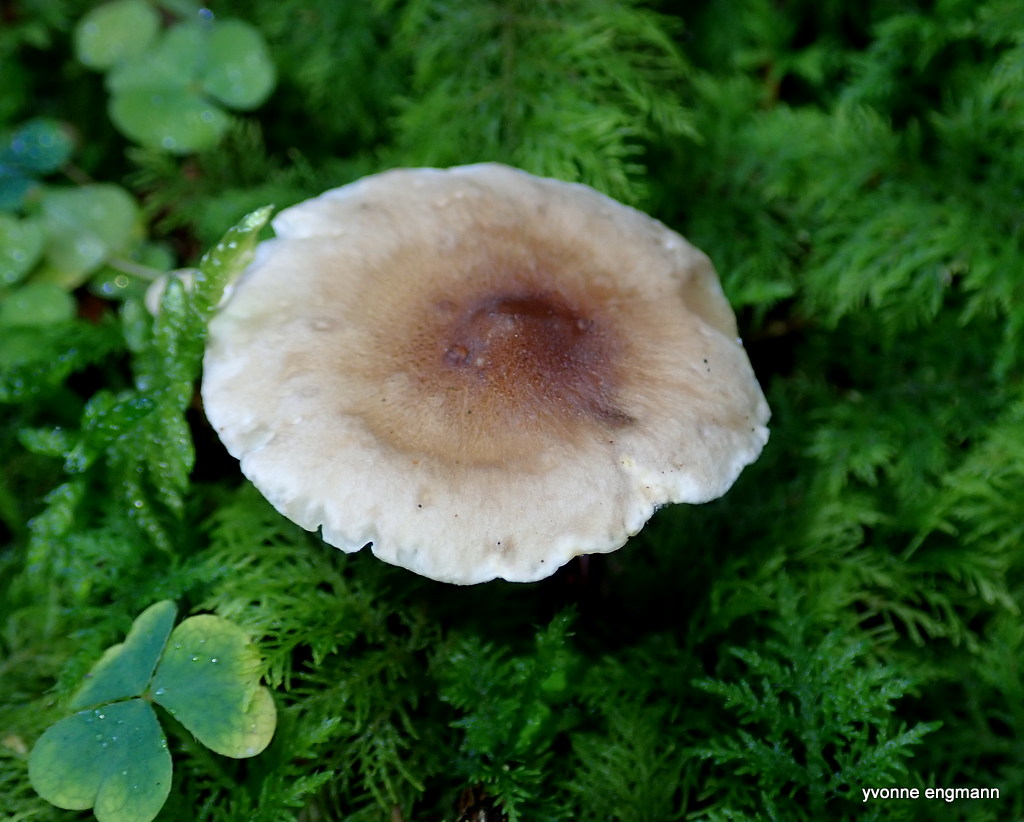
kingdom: Fungi
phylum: Basidiomycota
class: Agaricomycetes
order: Agaricales
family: Hygrophoraceae
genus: Ampulloclitocybe
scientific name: Ampulloclitocybe clavipes
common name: køllefod
